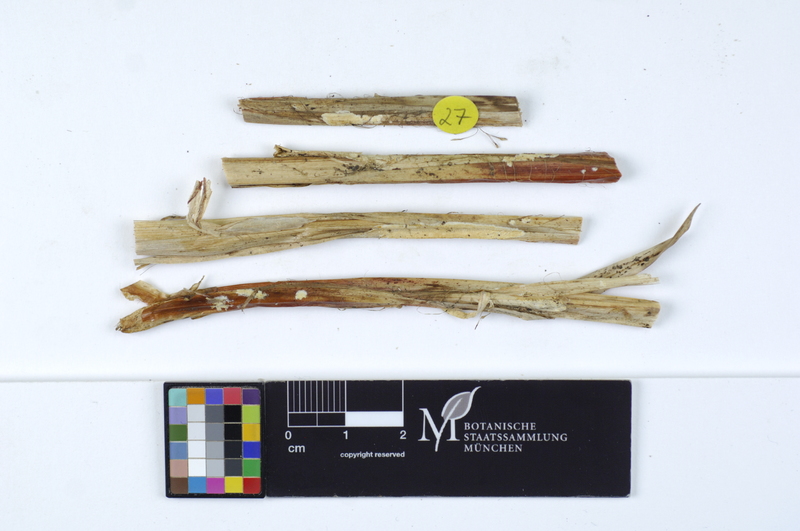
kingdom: Plantae
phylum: Tracheophyta
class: Liliopsida
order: Poales
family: Cyperaceae
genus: Carex
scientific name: Carex acutiformis
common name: Lesser pond-sedge
